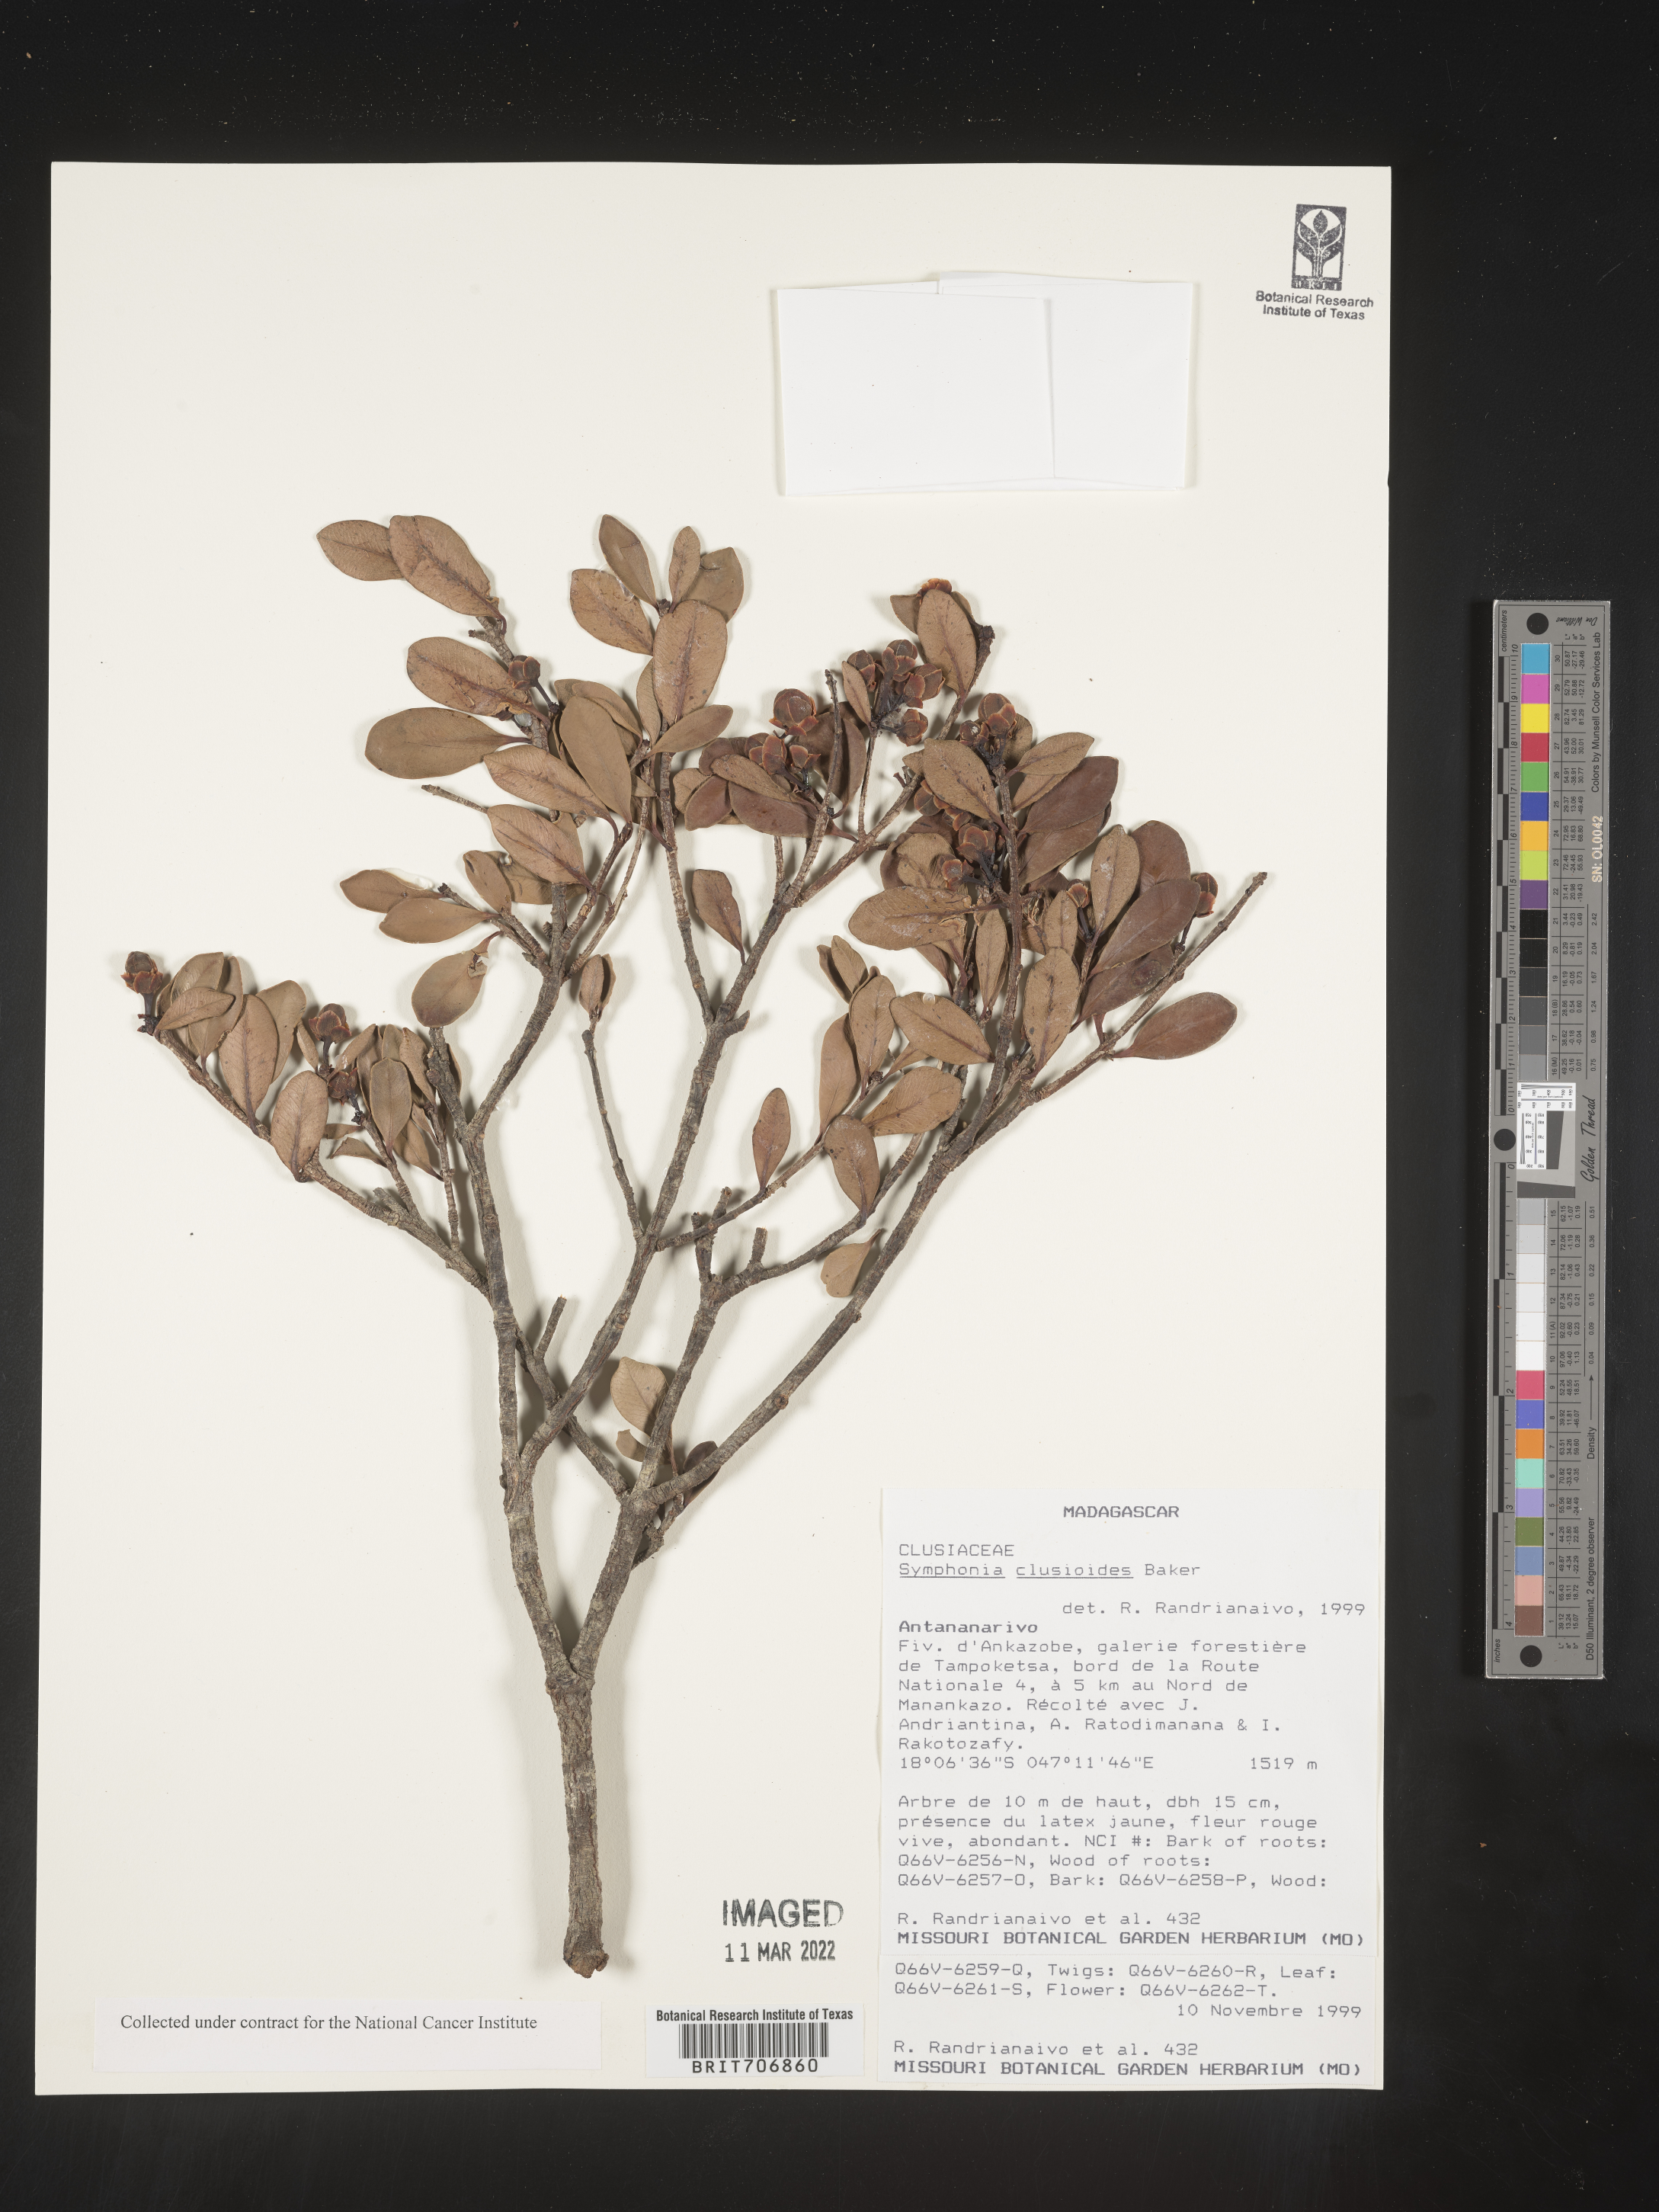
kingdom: Plantae
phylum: Tracheophyta
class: Magnoliopsida
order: Malpighiales
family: Clusiaceae
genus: Symphonia
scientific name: Symphonia
